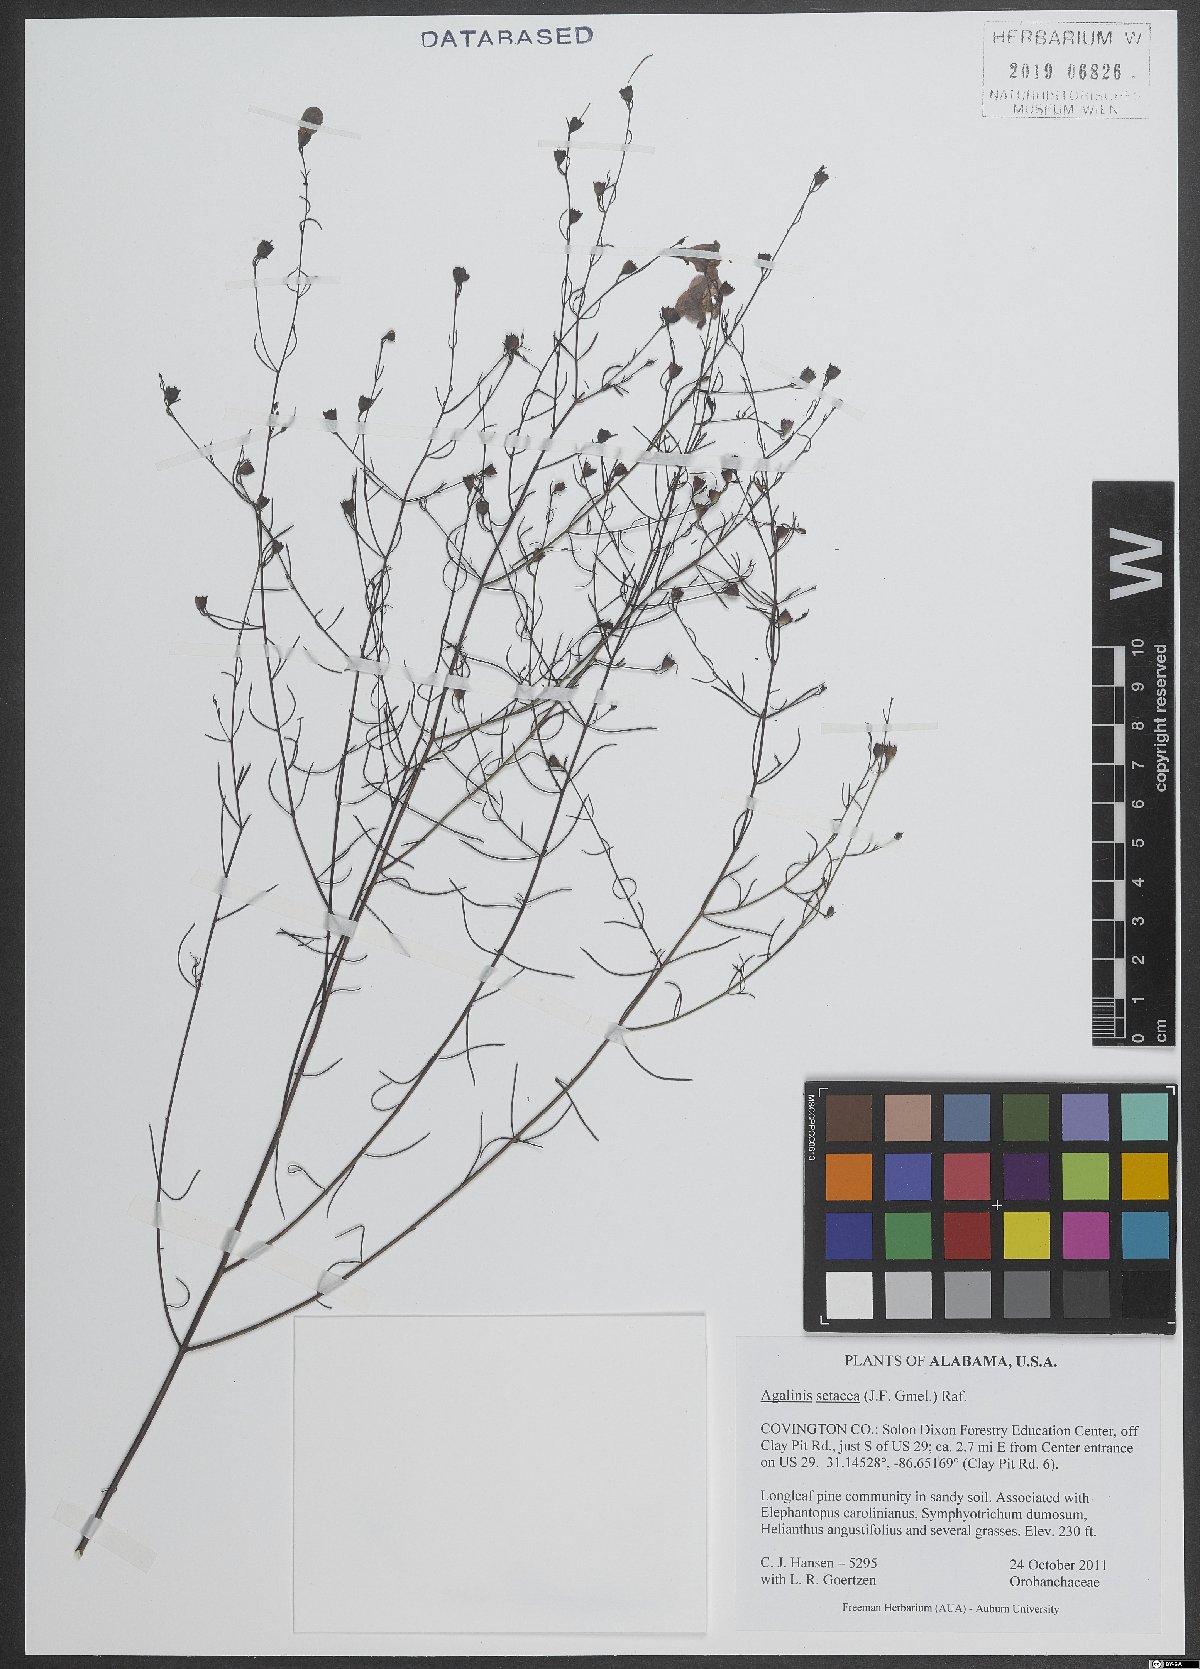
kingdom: Plantae
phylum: Tracheophyta
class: Magnoliopsida
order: Lamiales
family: Orobanchaceae
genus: Agalinis
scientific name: Agalinis setacea
